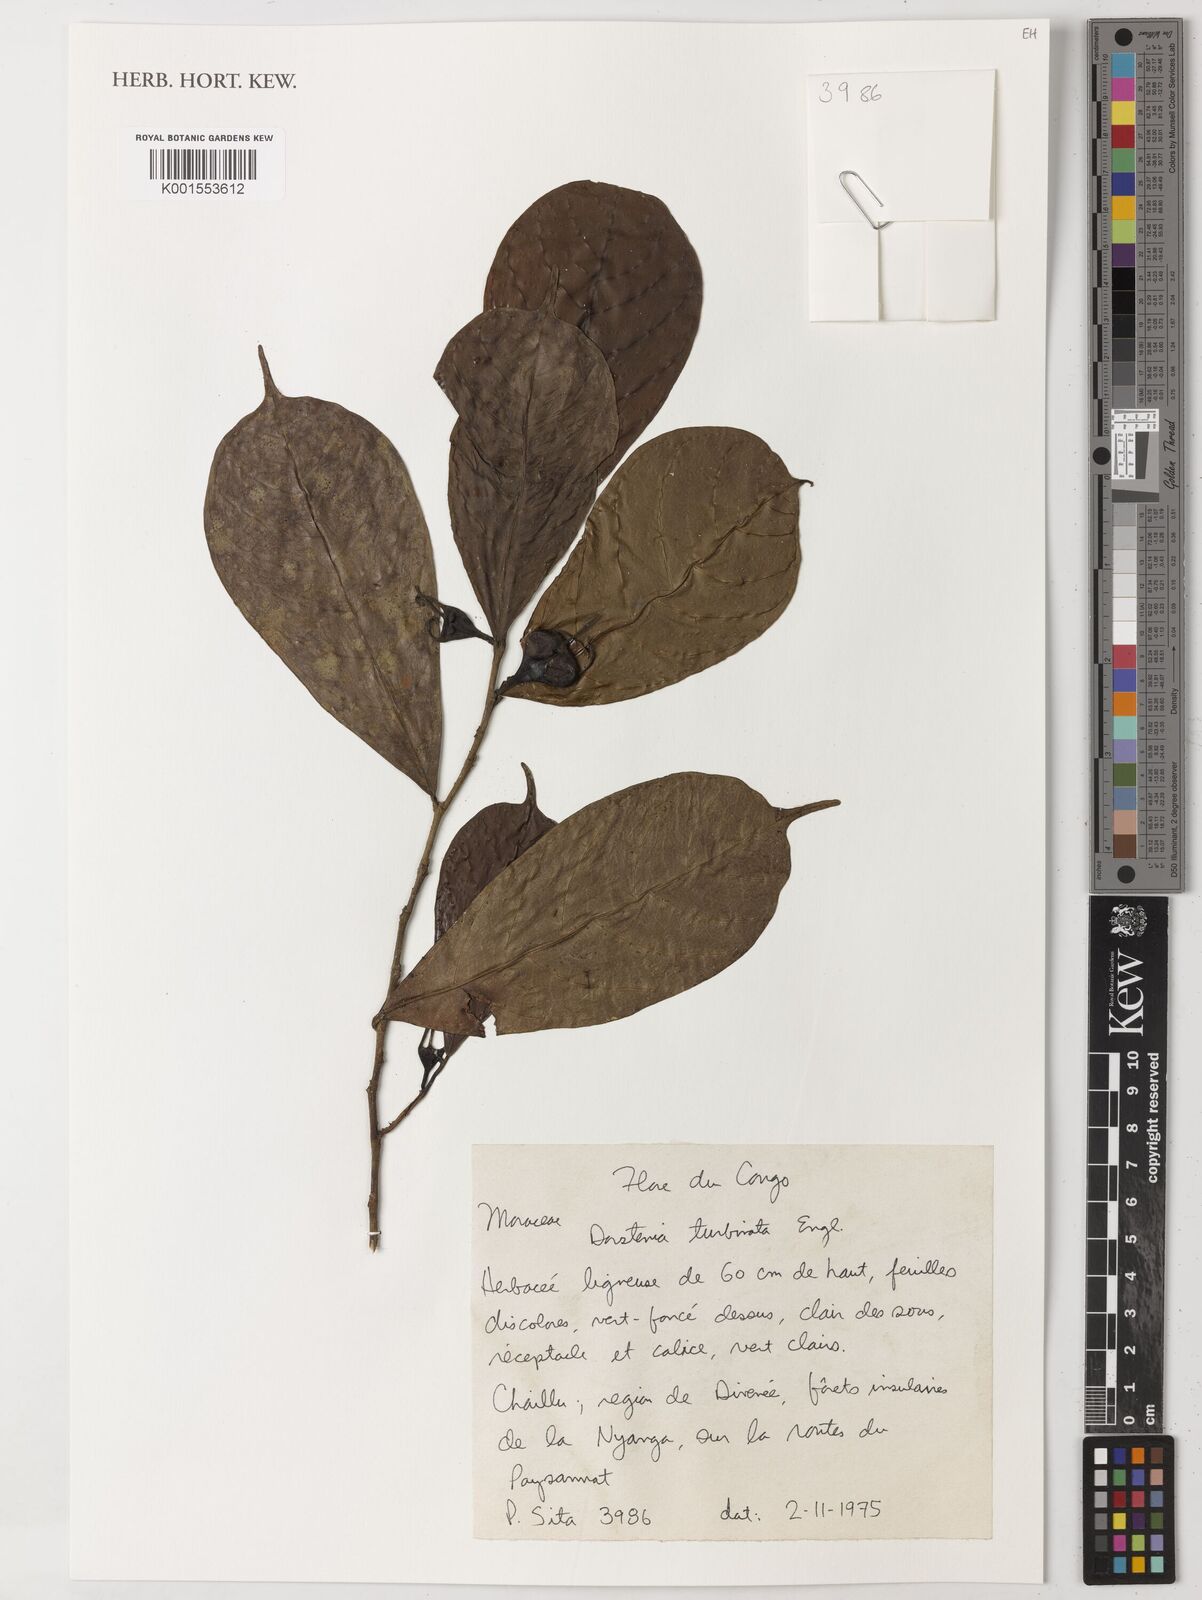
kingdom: Plantae
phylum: Tracheophyta
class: Magnoliopsida
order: Rosales
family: Moraceae
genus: Hijmania
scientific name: Hijmania turbinata
